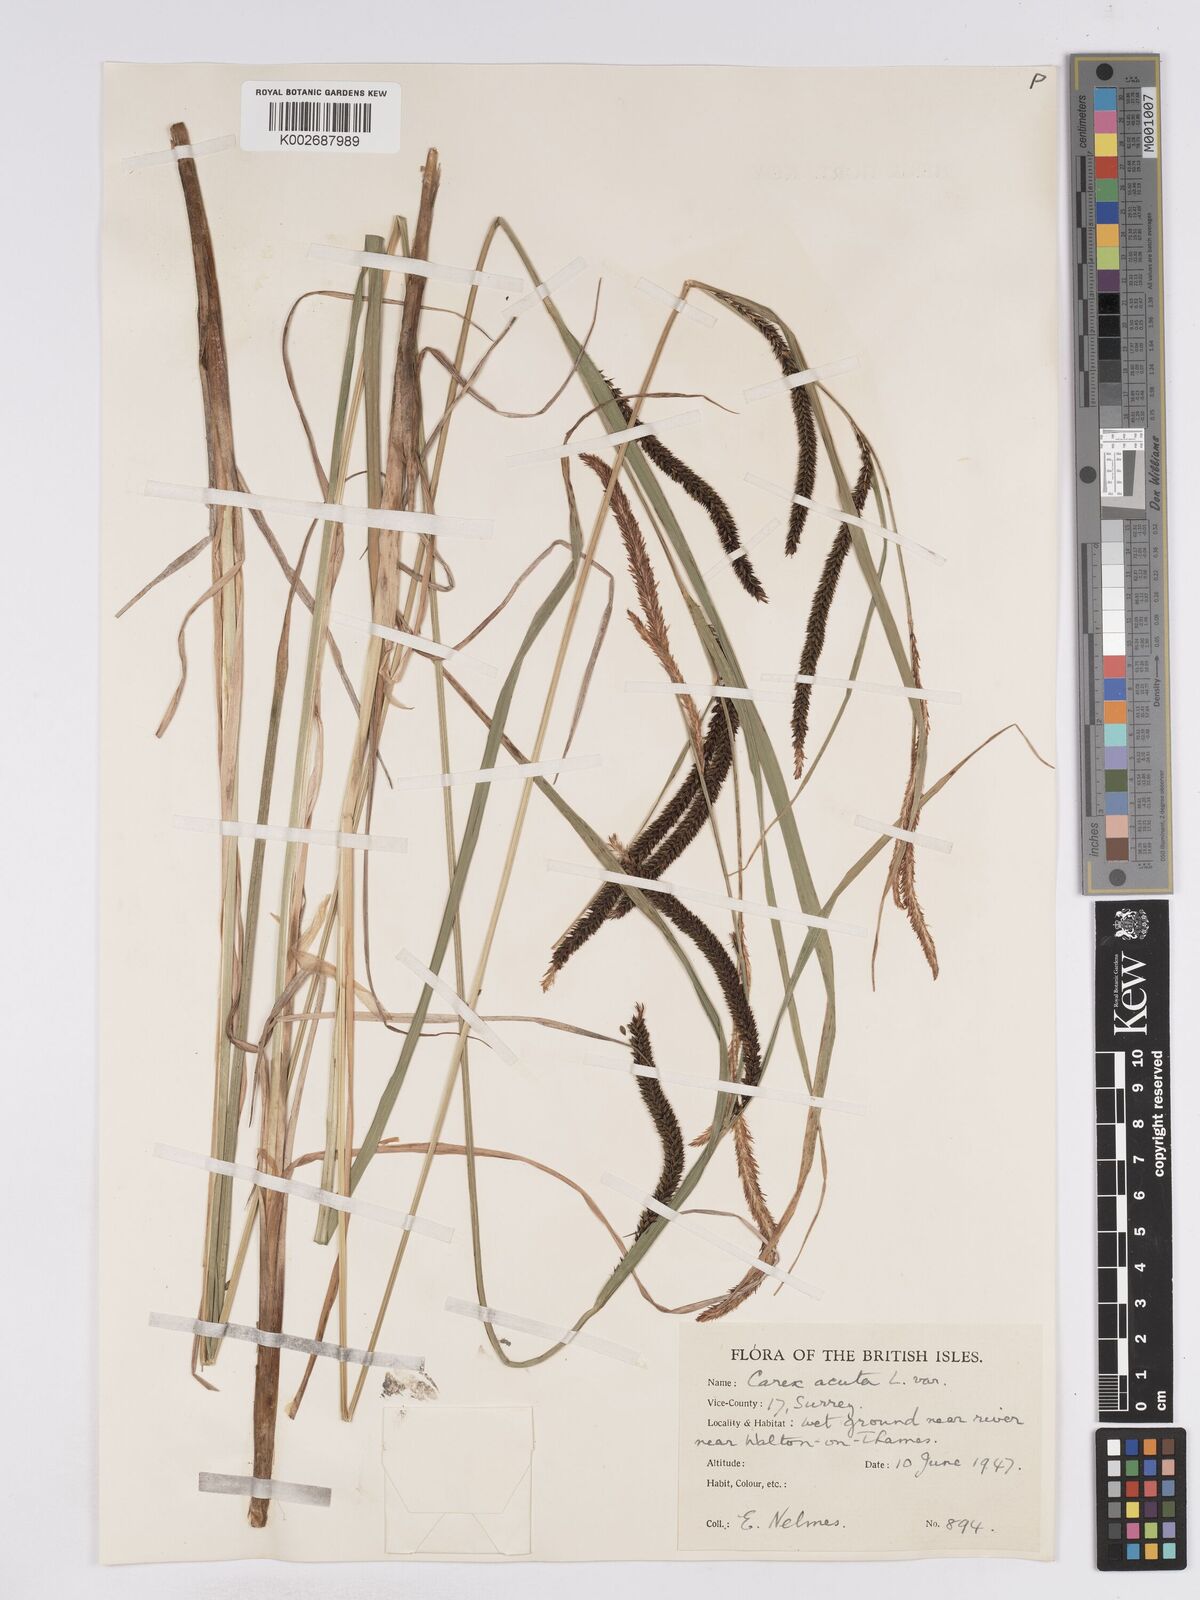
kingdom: Plantae
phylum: Tracheophyta
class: Liliopsida
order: Poales
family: Cyperaceae
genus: Carex
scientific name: Carex acuta
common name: Slender tufted-sedge
